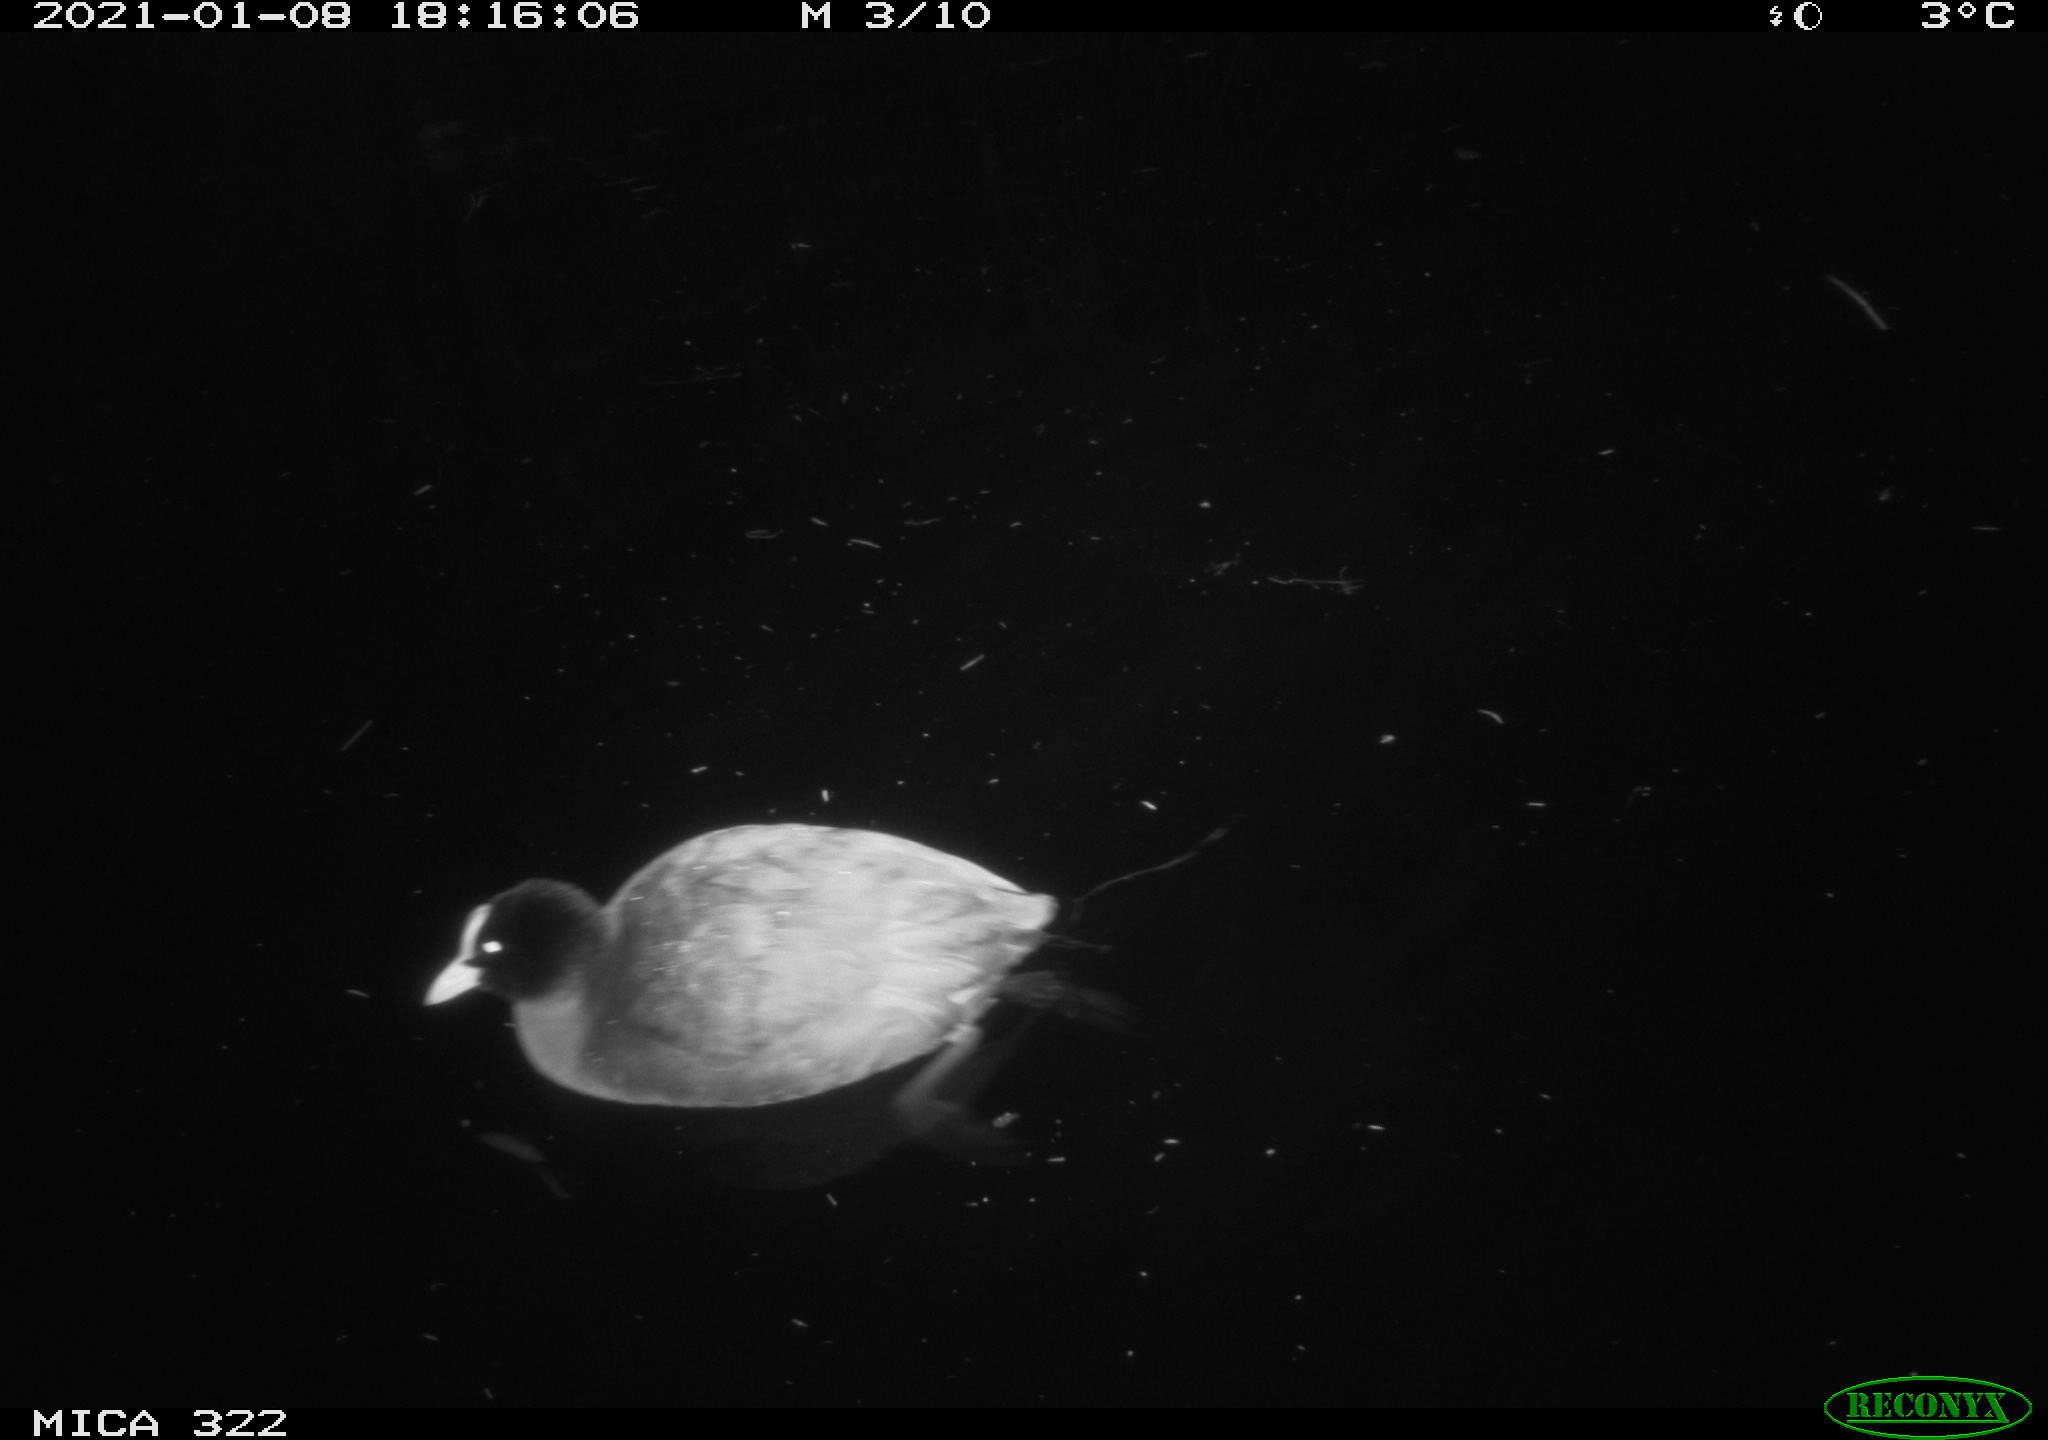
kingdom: Animalia
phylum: Chordata
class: Aves
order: Gruiformes
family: Rallidae
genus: Fulica
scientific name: Fulica atra
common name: Eurasian coot
